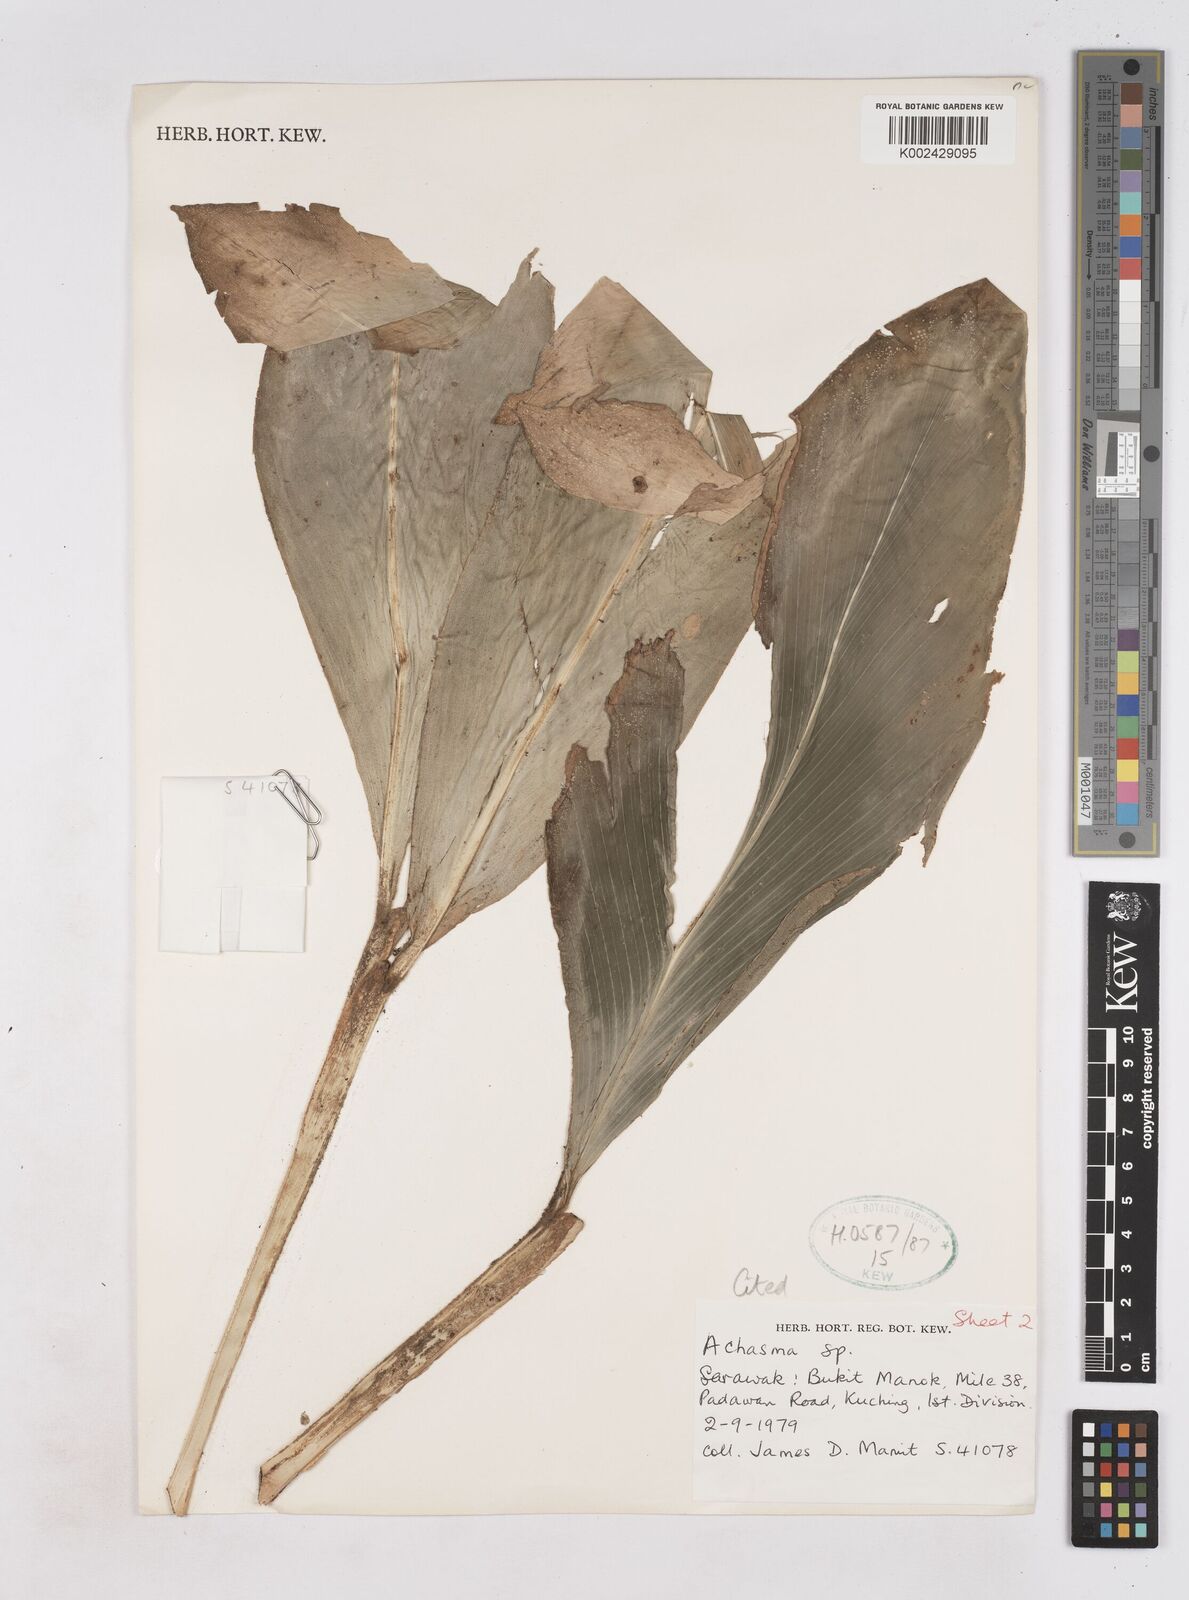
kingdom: Plantae
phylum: Tracheophyta
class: Liliopsida
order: Zingiberales
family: Zingiberaceae
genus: Zingiber
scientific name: Zingiber acuminatum
